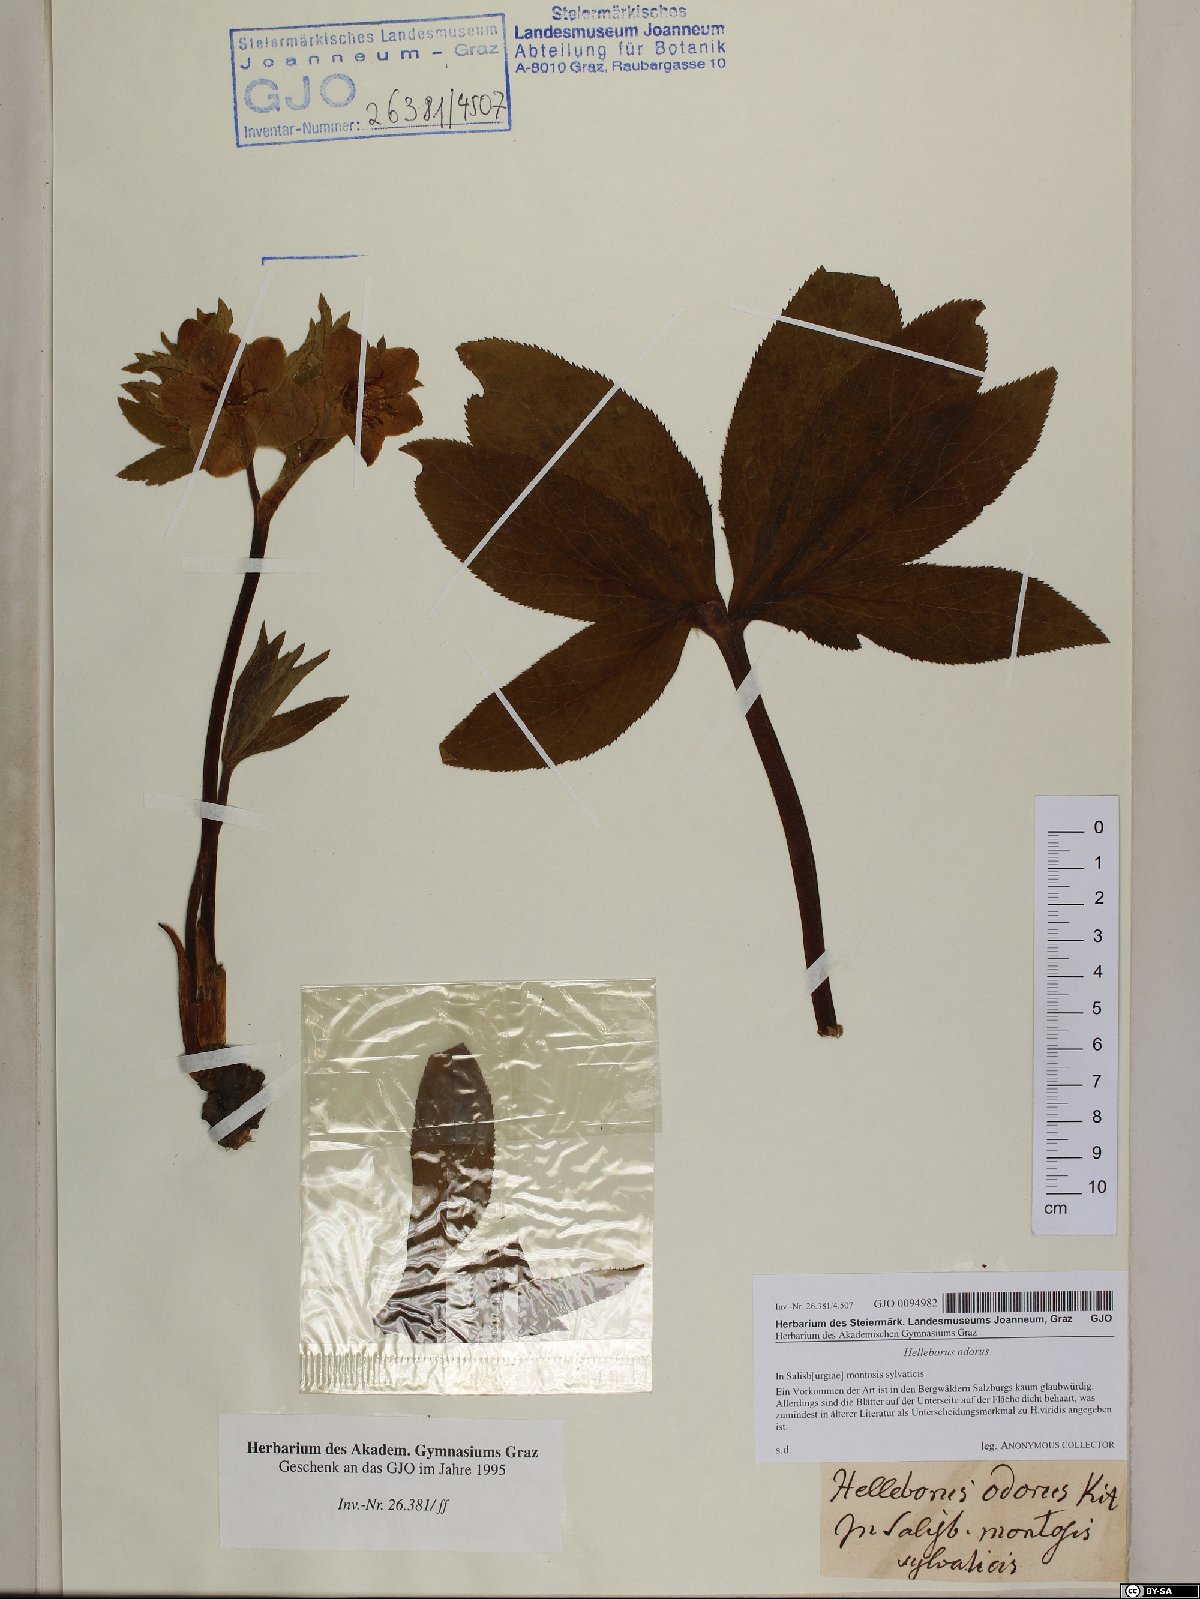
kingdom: Plantae
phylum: Tracheophyta
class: Magnoliopsida
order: Ranunculales
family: Ranunculaceae
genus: Helleborus
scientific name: Helleborus odorus
